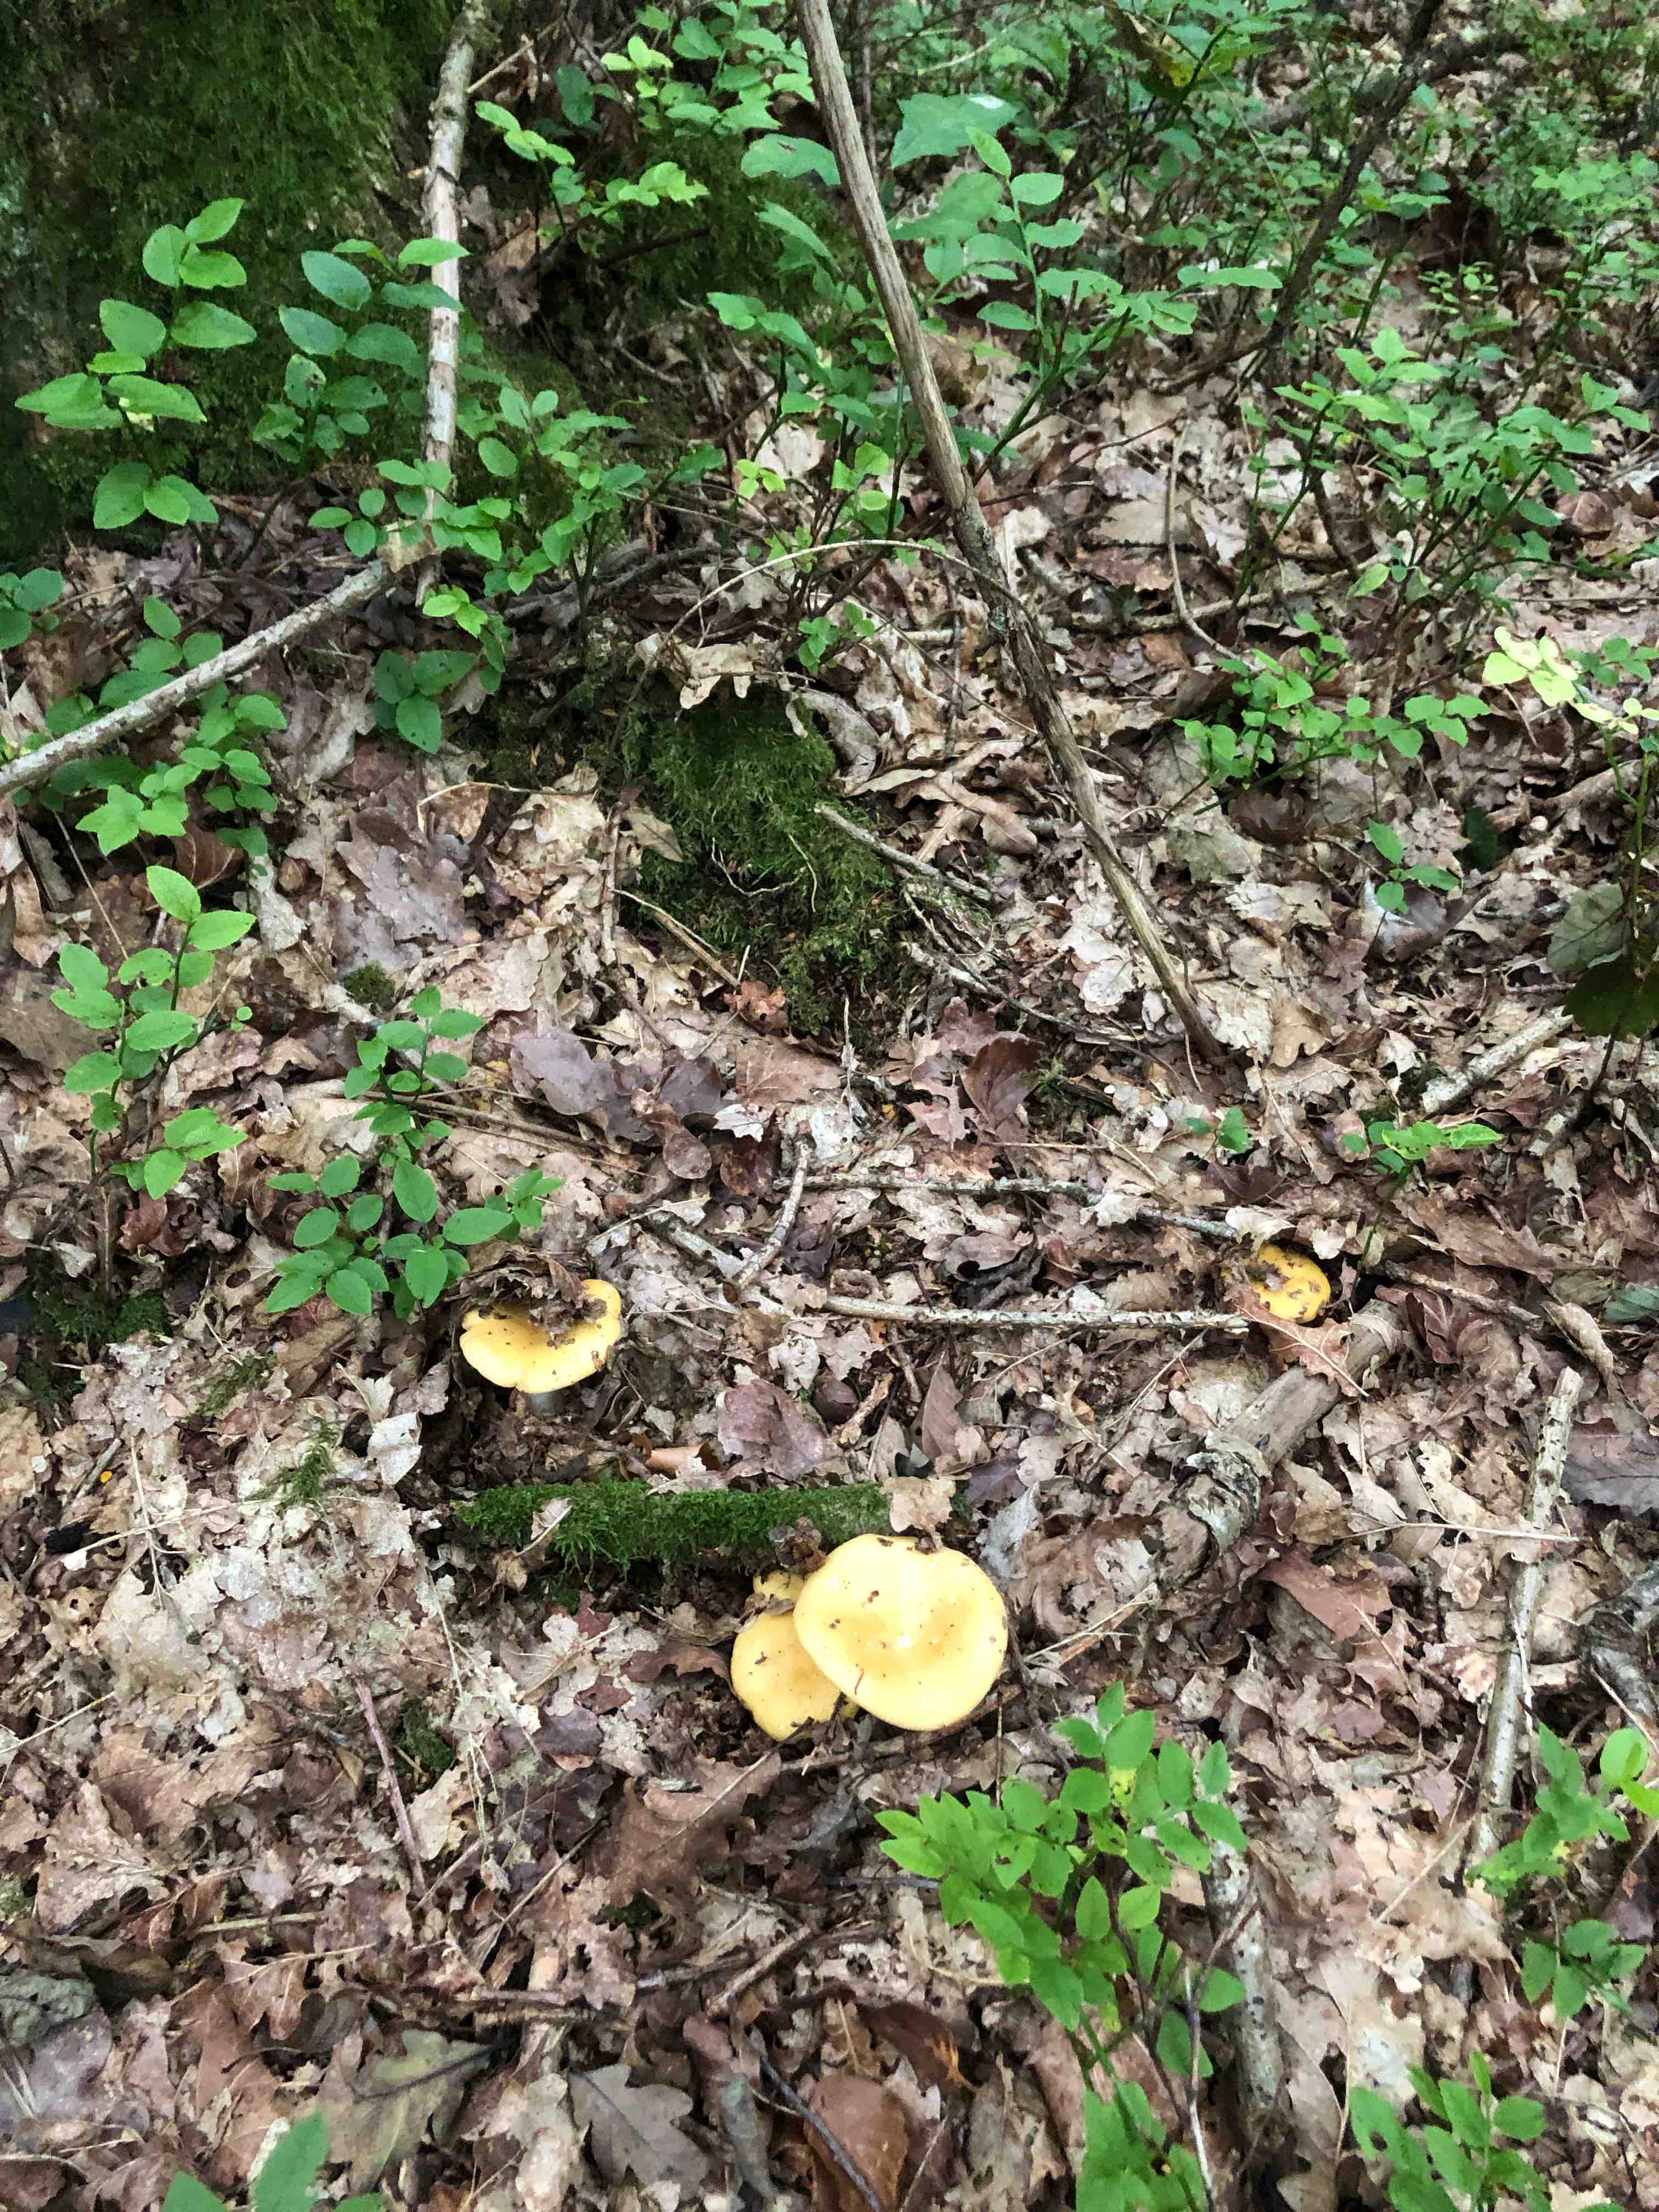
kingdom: Fungi
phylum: Basidiomycota
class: Agaricomycetes
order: Russulales
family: Russulaceae
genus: Russula
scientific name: Russula ochroleuca
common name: okkergul skørhat
